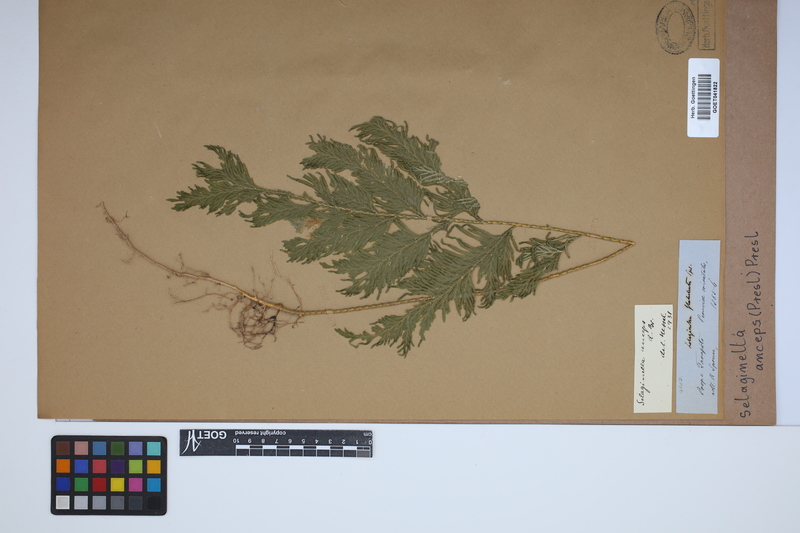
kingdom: Plantae
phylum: Tracheophyta
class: Lycopodiopsida
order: Selaginellales
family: Selaginellaceae
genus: Selaginella
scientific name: Selaginella anceps
